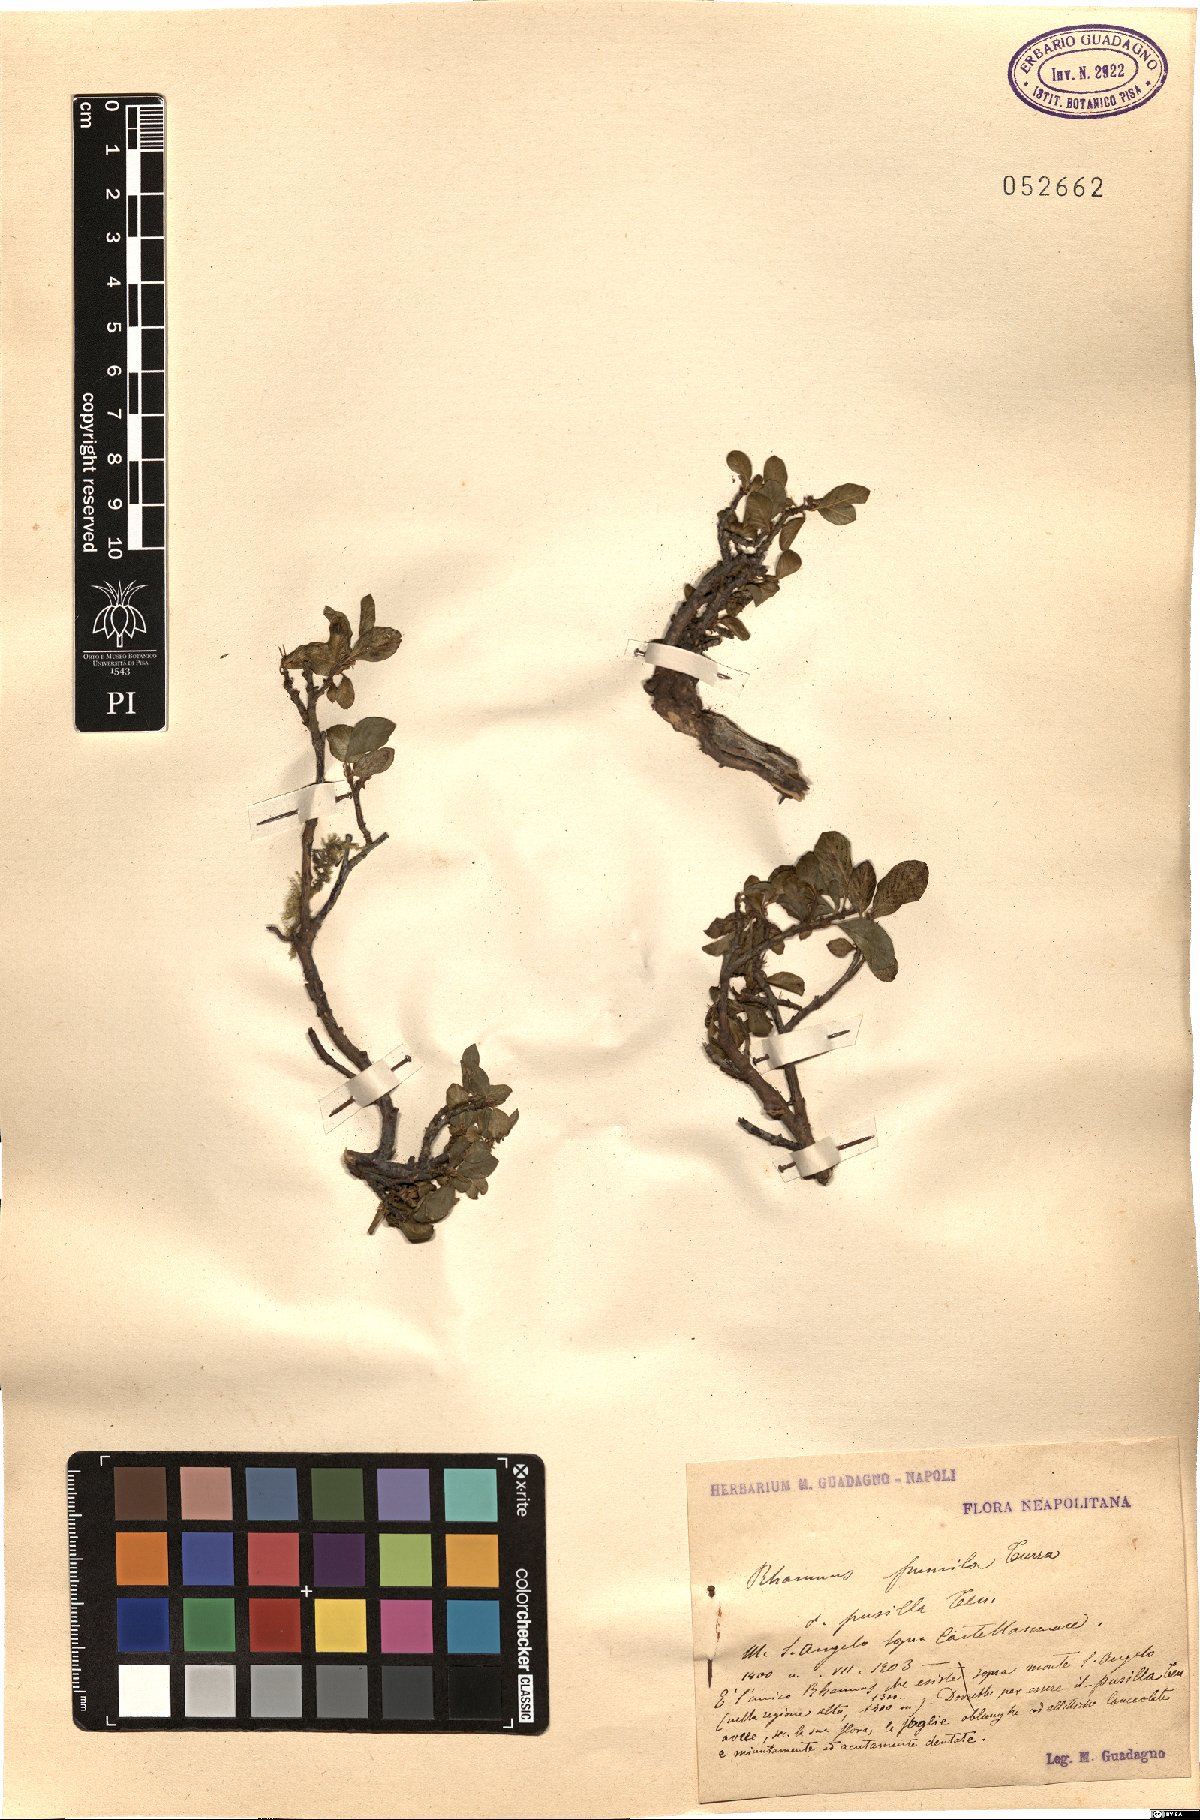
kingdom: Plantae
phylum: Tracheophyta
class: Magnoliopsida
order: Rosales
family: Rhamnaceae
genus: Atadinus
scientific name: Atadinus pumilus
